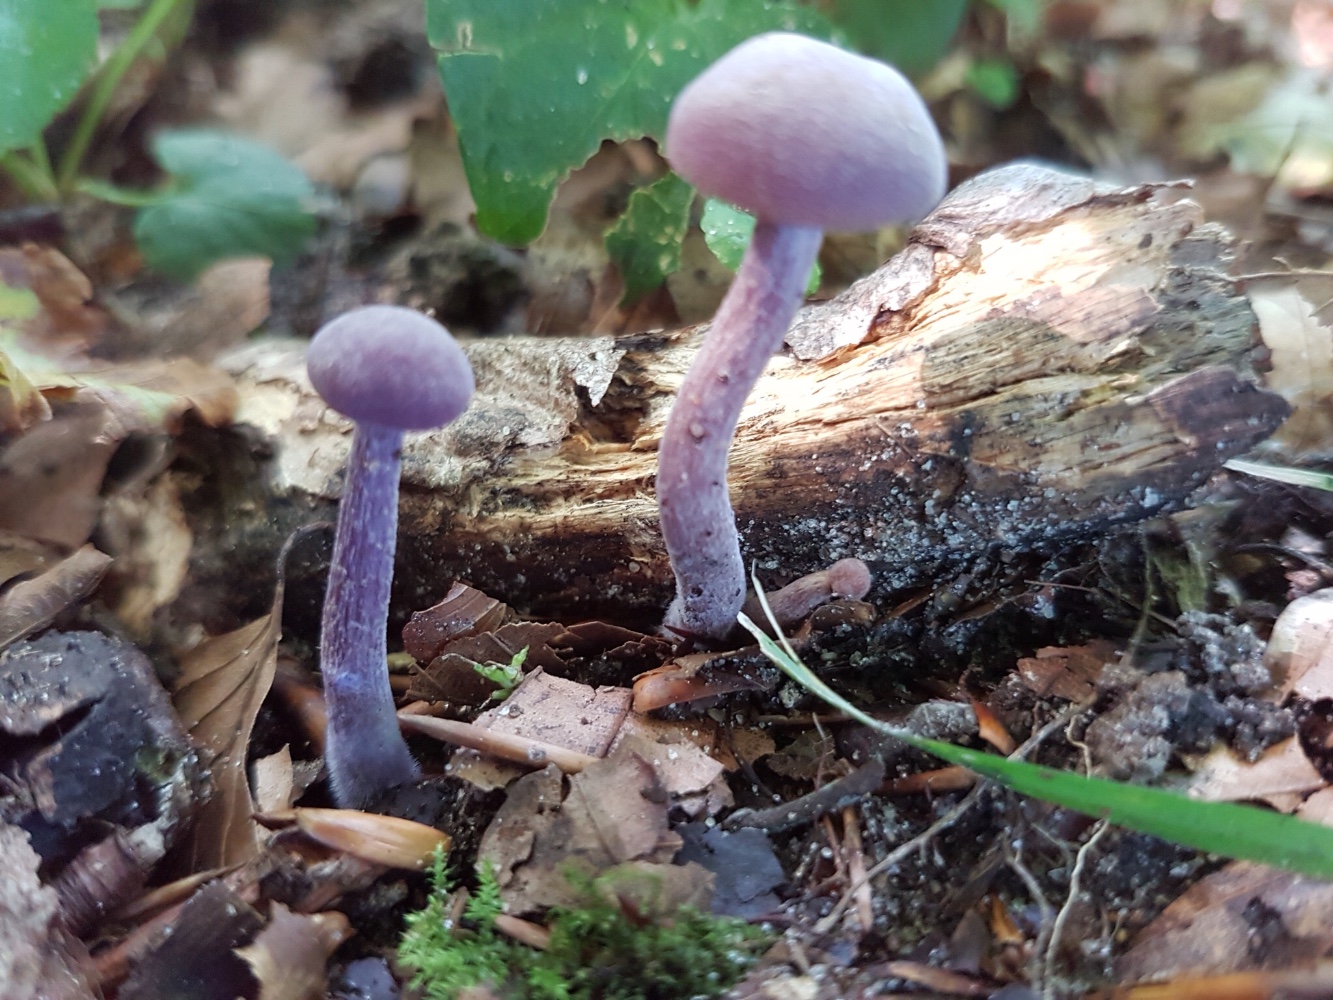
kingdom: Fungi
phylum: Basidiomycota
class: Agaricomycetes
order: Agaricales
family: Hydnangiaceae
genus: Laccaria
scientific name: Laccaria amethystina
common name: violet ametysthat
